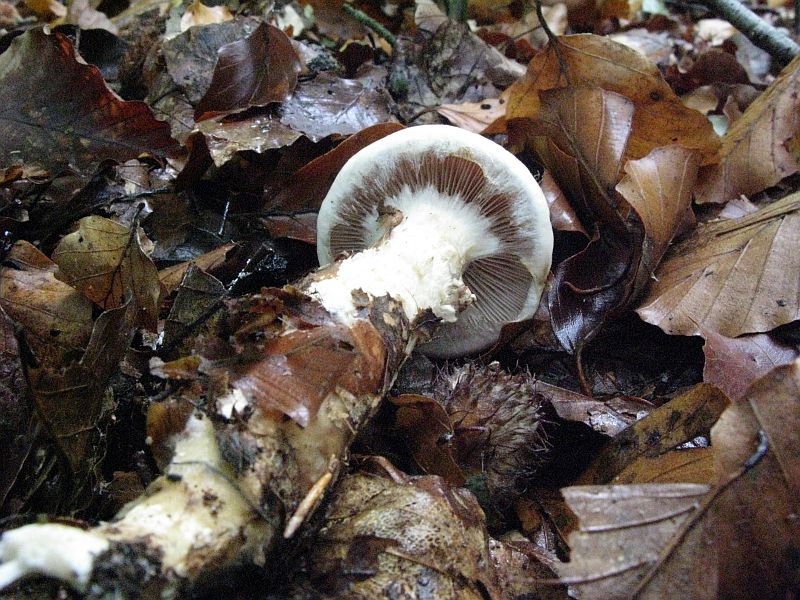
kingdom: Fungi
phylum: Basidiomycota
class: Agaricomycetes
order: Agaricales
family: Hymenogastraceae
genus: Hebeloma
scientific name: Hebeloma radicosum
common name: pælerods-tåreblad
